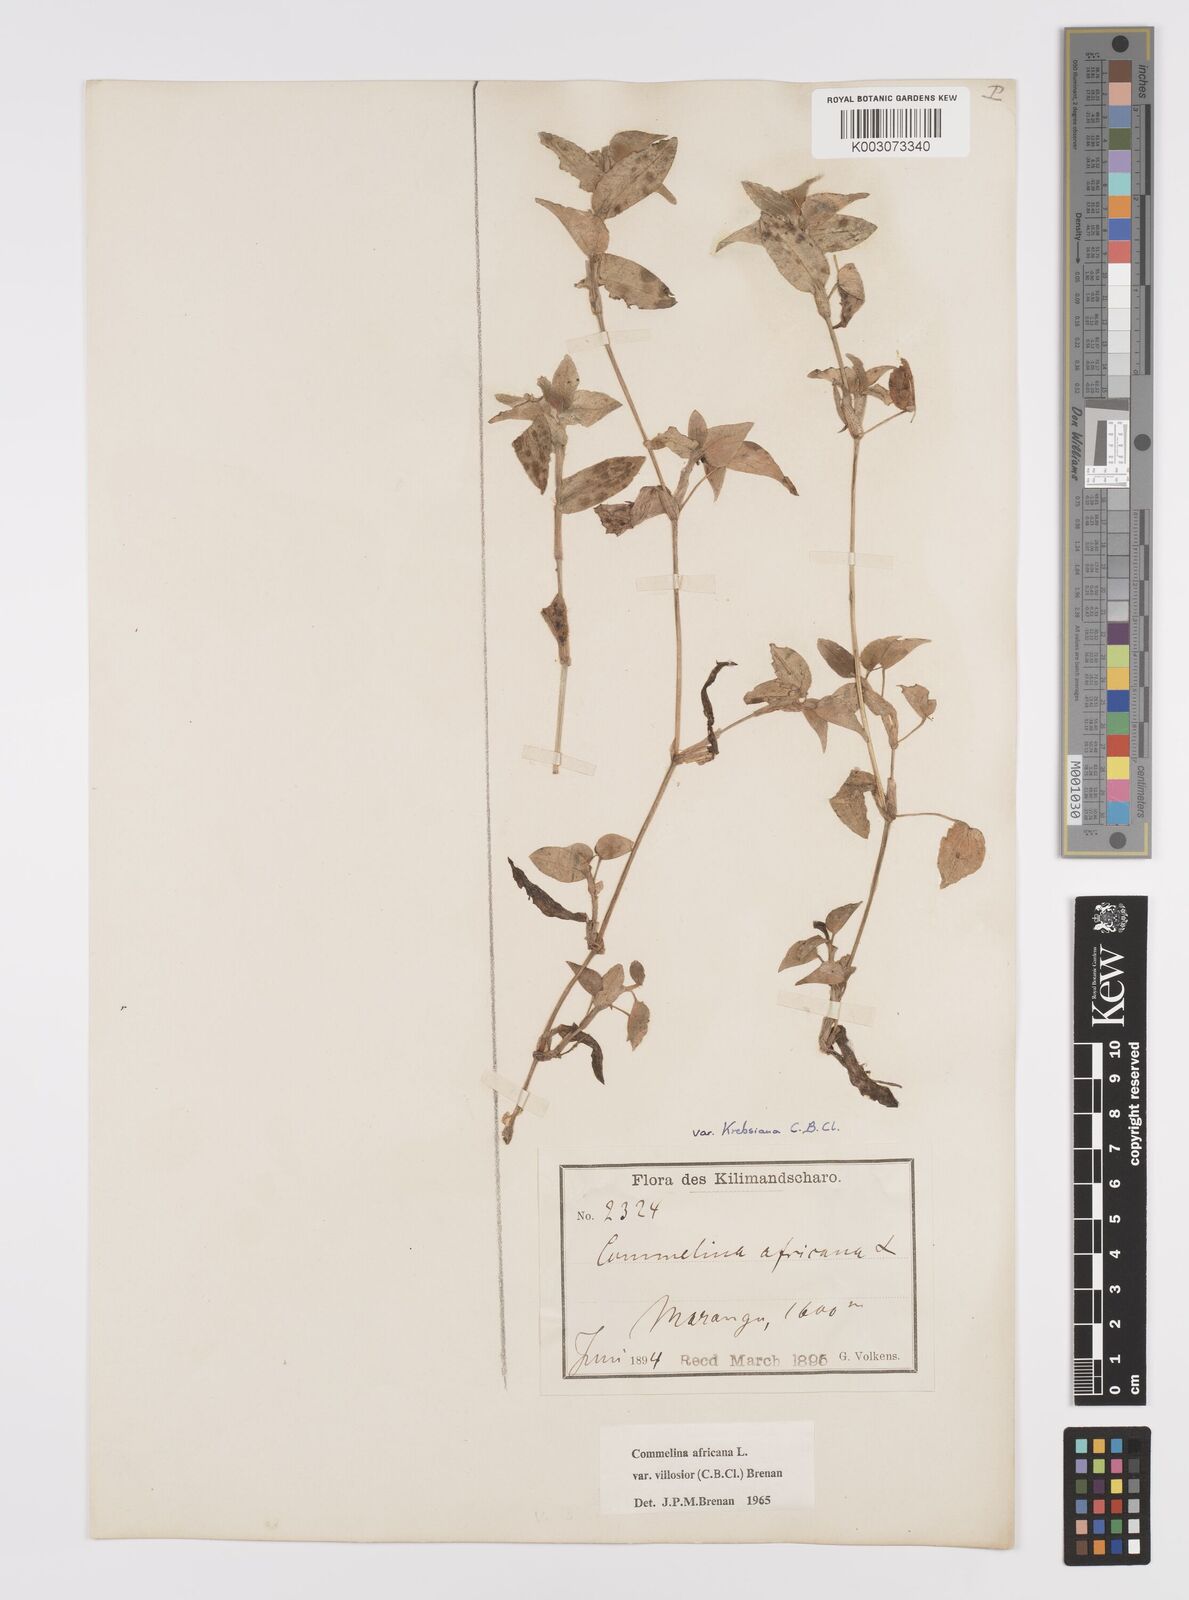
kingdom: Plantae
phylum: Tracheophyta
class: Liliopsida
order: Commelinales
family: Commelinaceae
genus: Commelina
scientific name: Commelina africana
